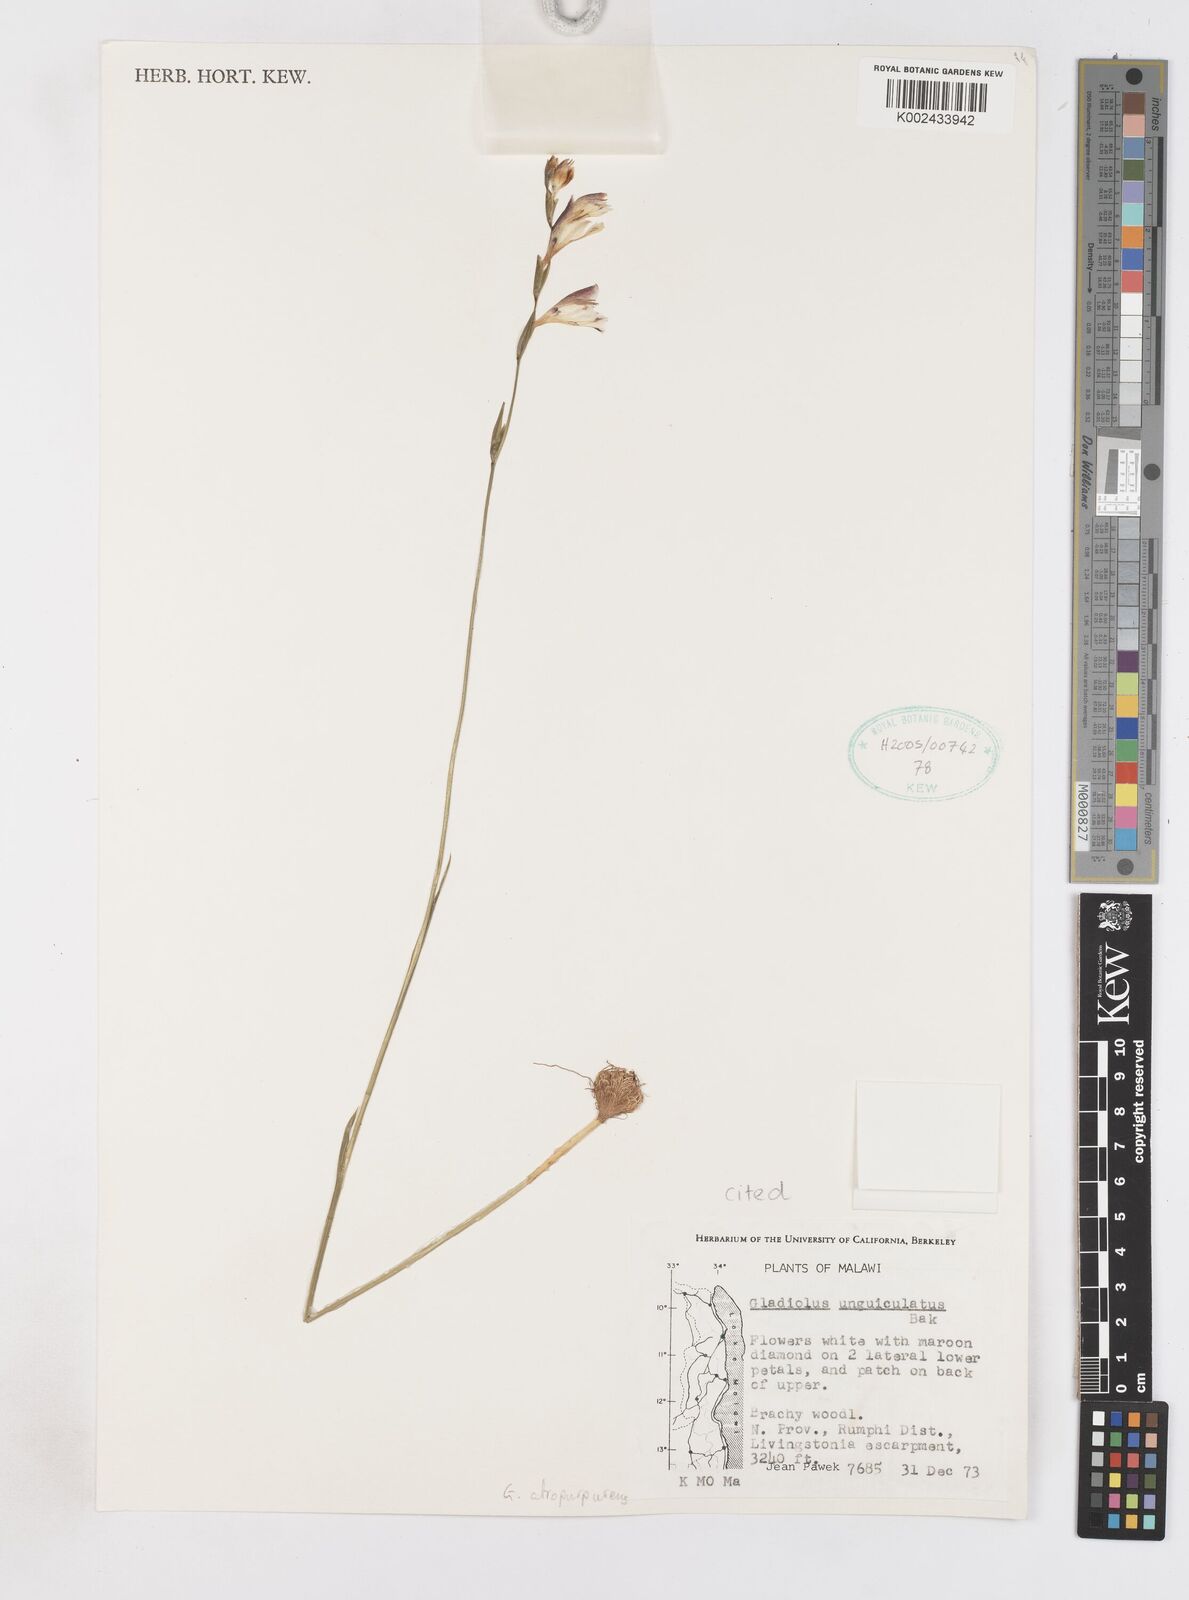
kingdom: Plantae
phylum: Tracheophyta
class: Liliopsida
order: Asparagales
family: Iridaceae
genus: Gladiolus
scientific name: Gladiolus atropurpureus
